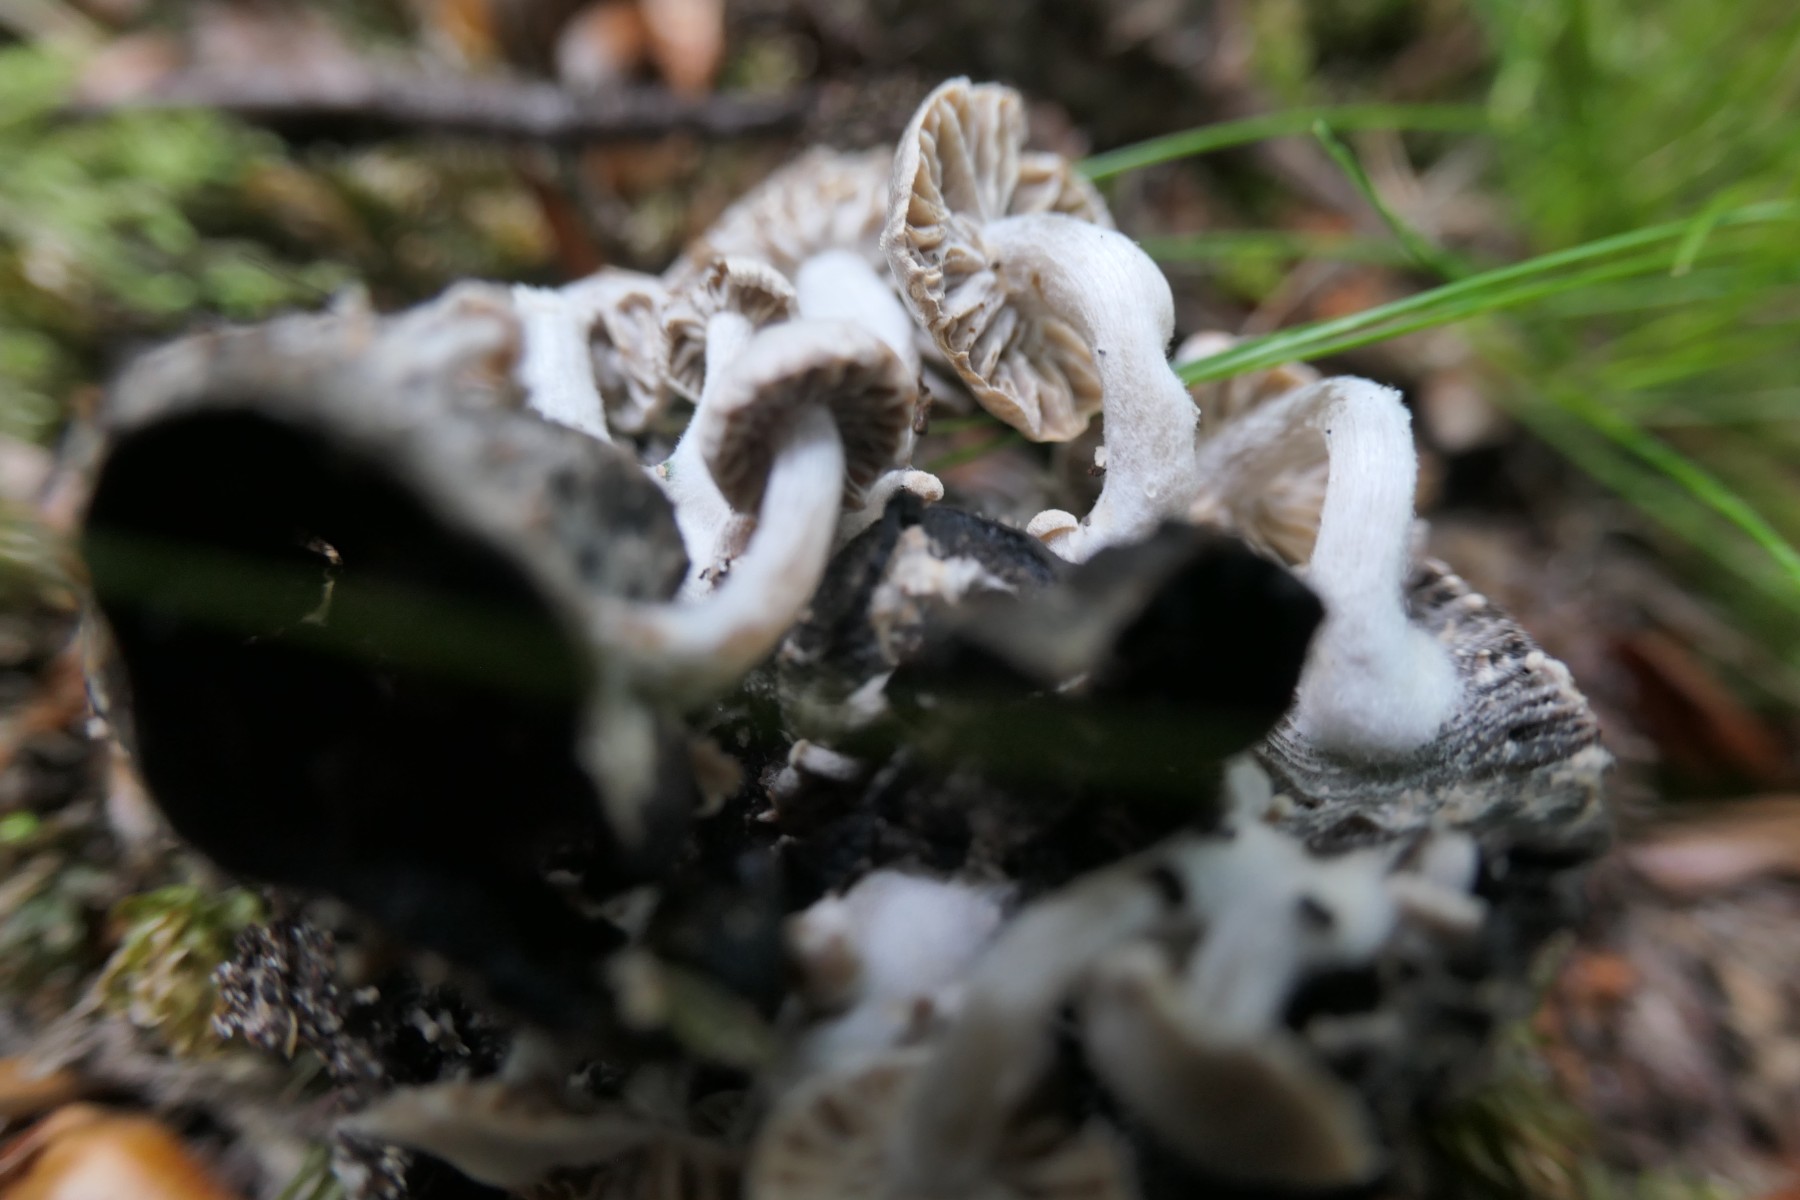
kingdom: Fungi
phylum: Basidiomycota
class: Agaricomycetes
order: Agaricales
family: Lyophyllaceae
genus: Asterophora
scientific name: Asterophora parasitica
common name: grå snyltehat
